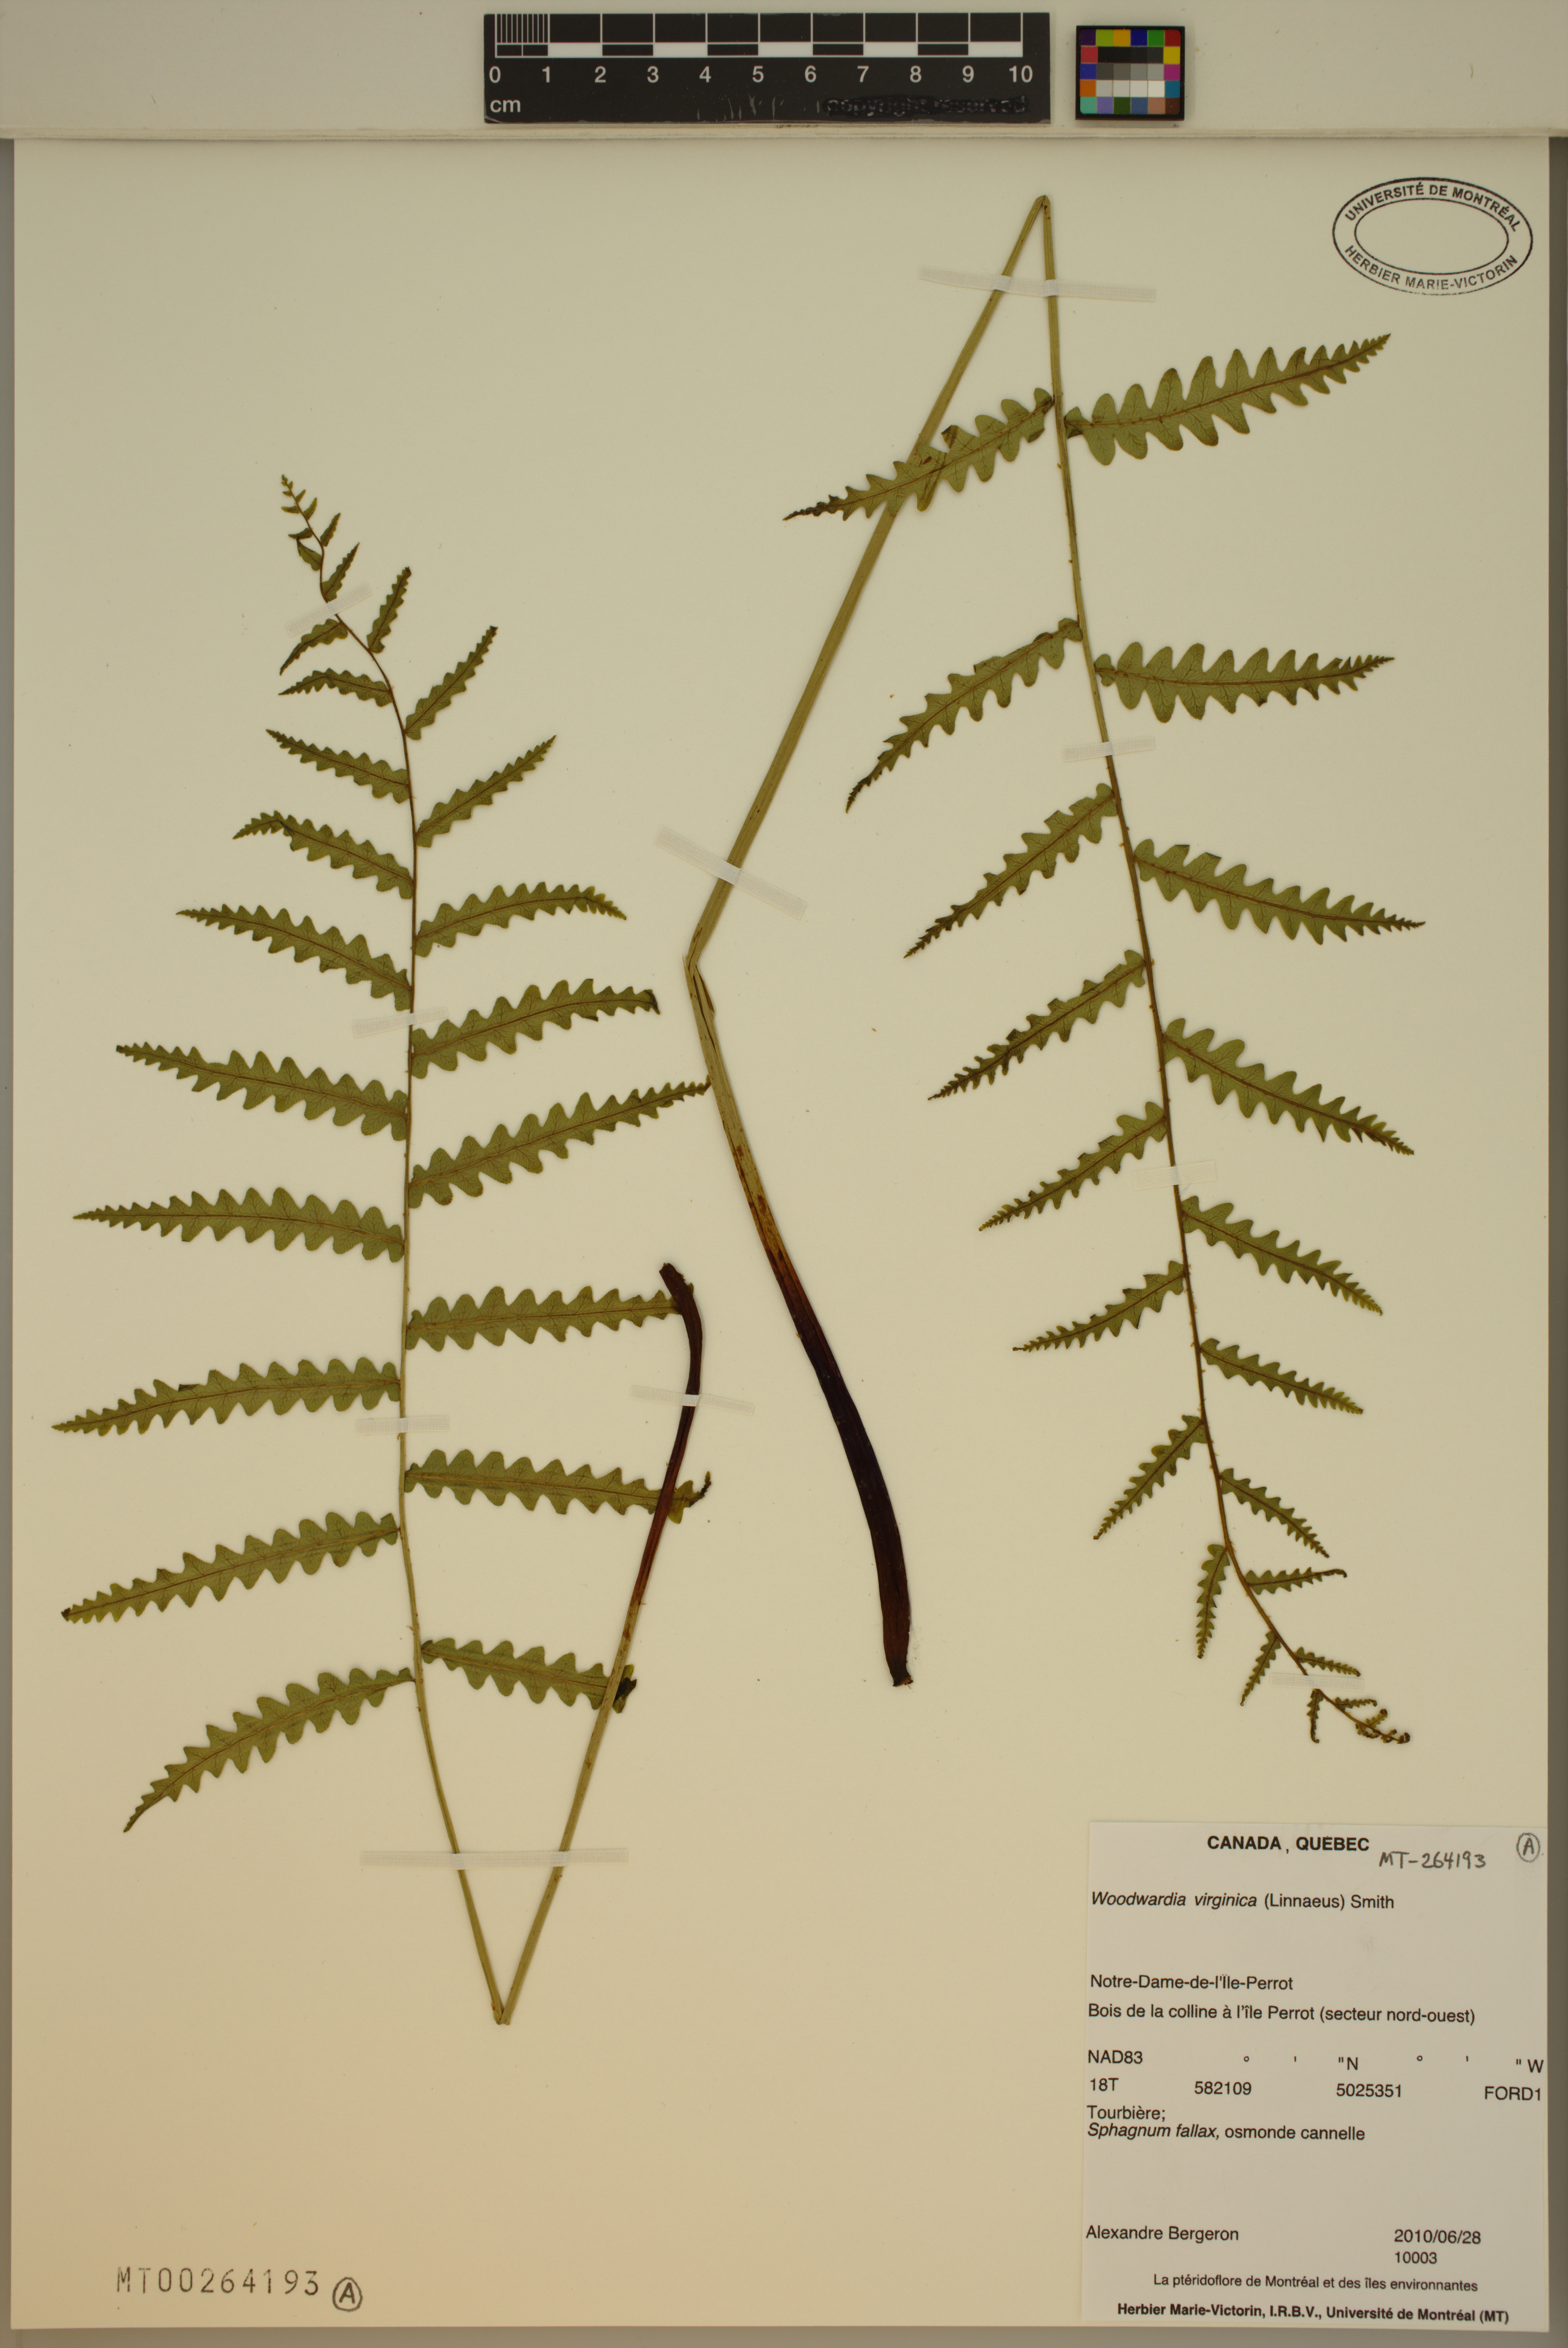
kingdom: Plantae
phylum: Tracheophyta
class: Polypodiopsida
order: Polypodiales
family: Blechnaceae
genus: Anchistea
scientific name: Anchistea virginica
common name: Virginia chain fern
